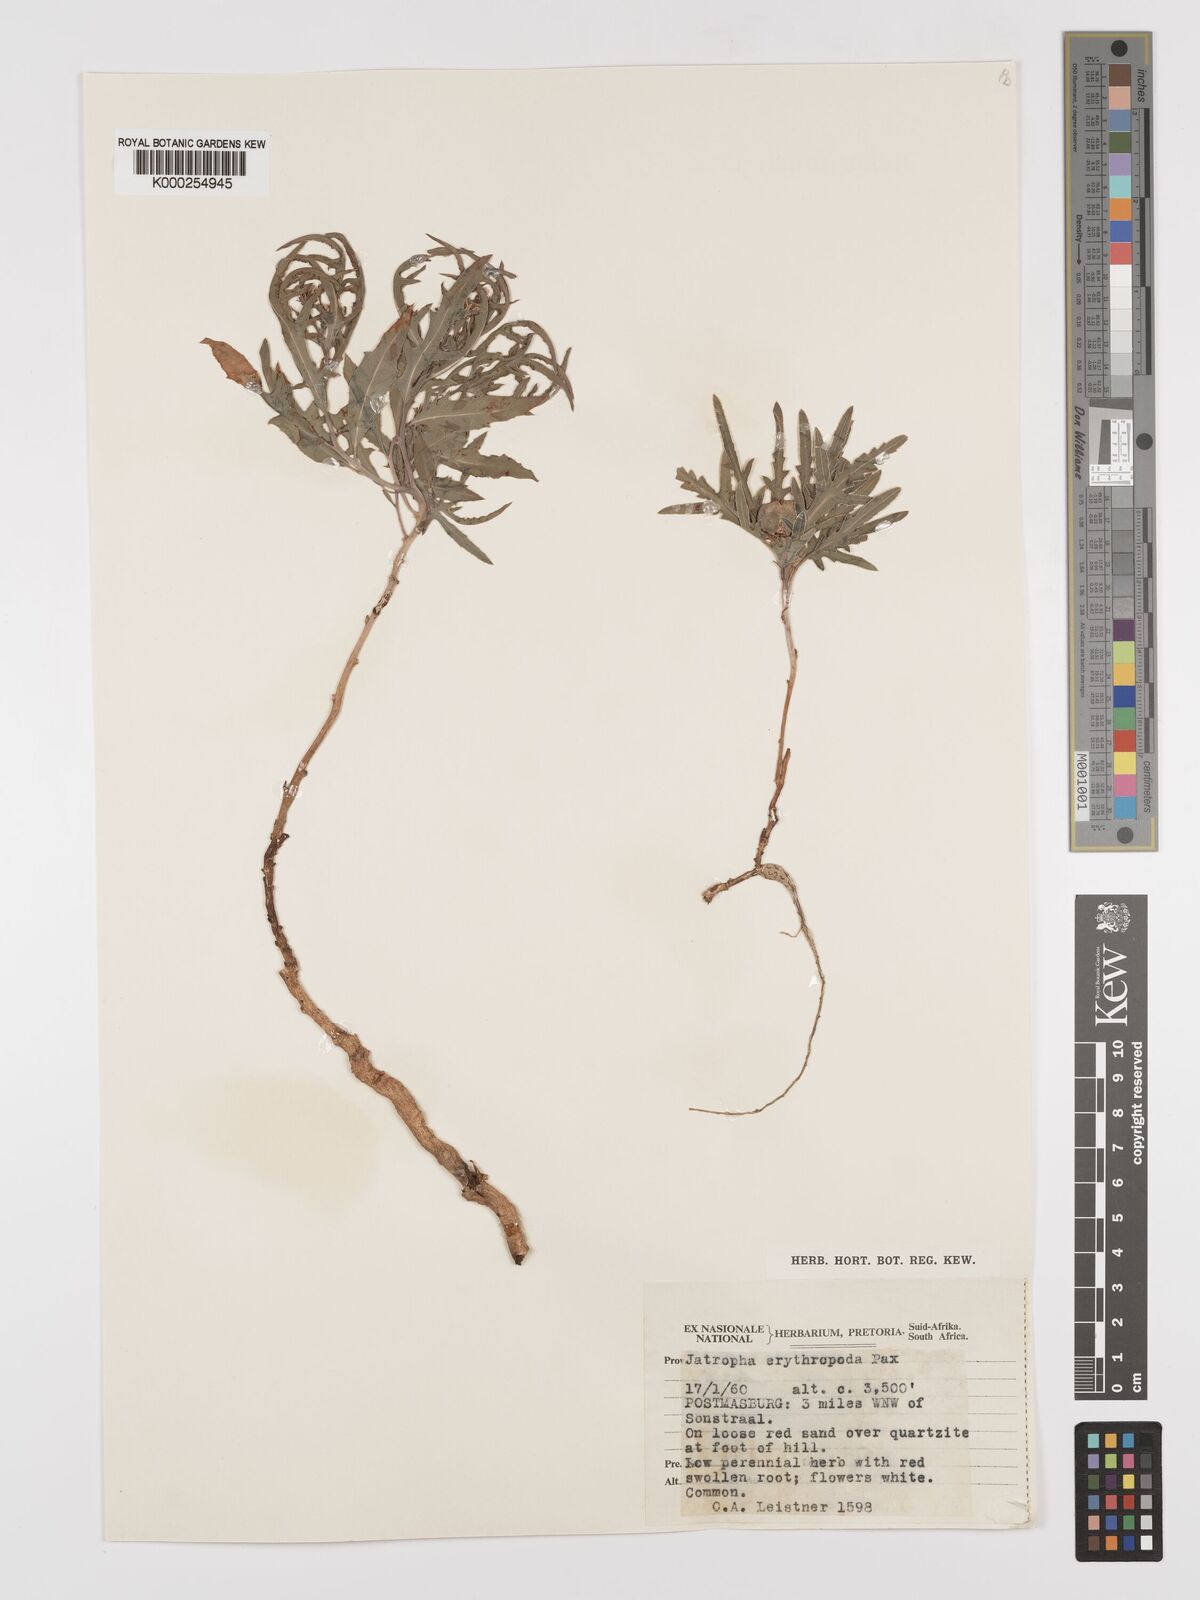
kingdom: Plantae
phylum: Tracheophyta
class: Magnoliopsida
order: Malpighiales
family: Euphorbiaceae
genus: Jatropha
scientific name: Jatropha erythropoda
